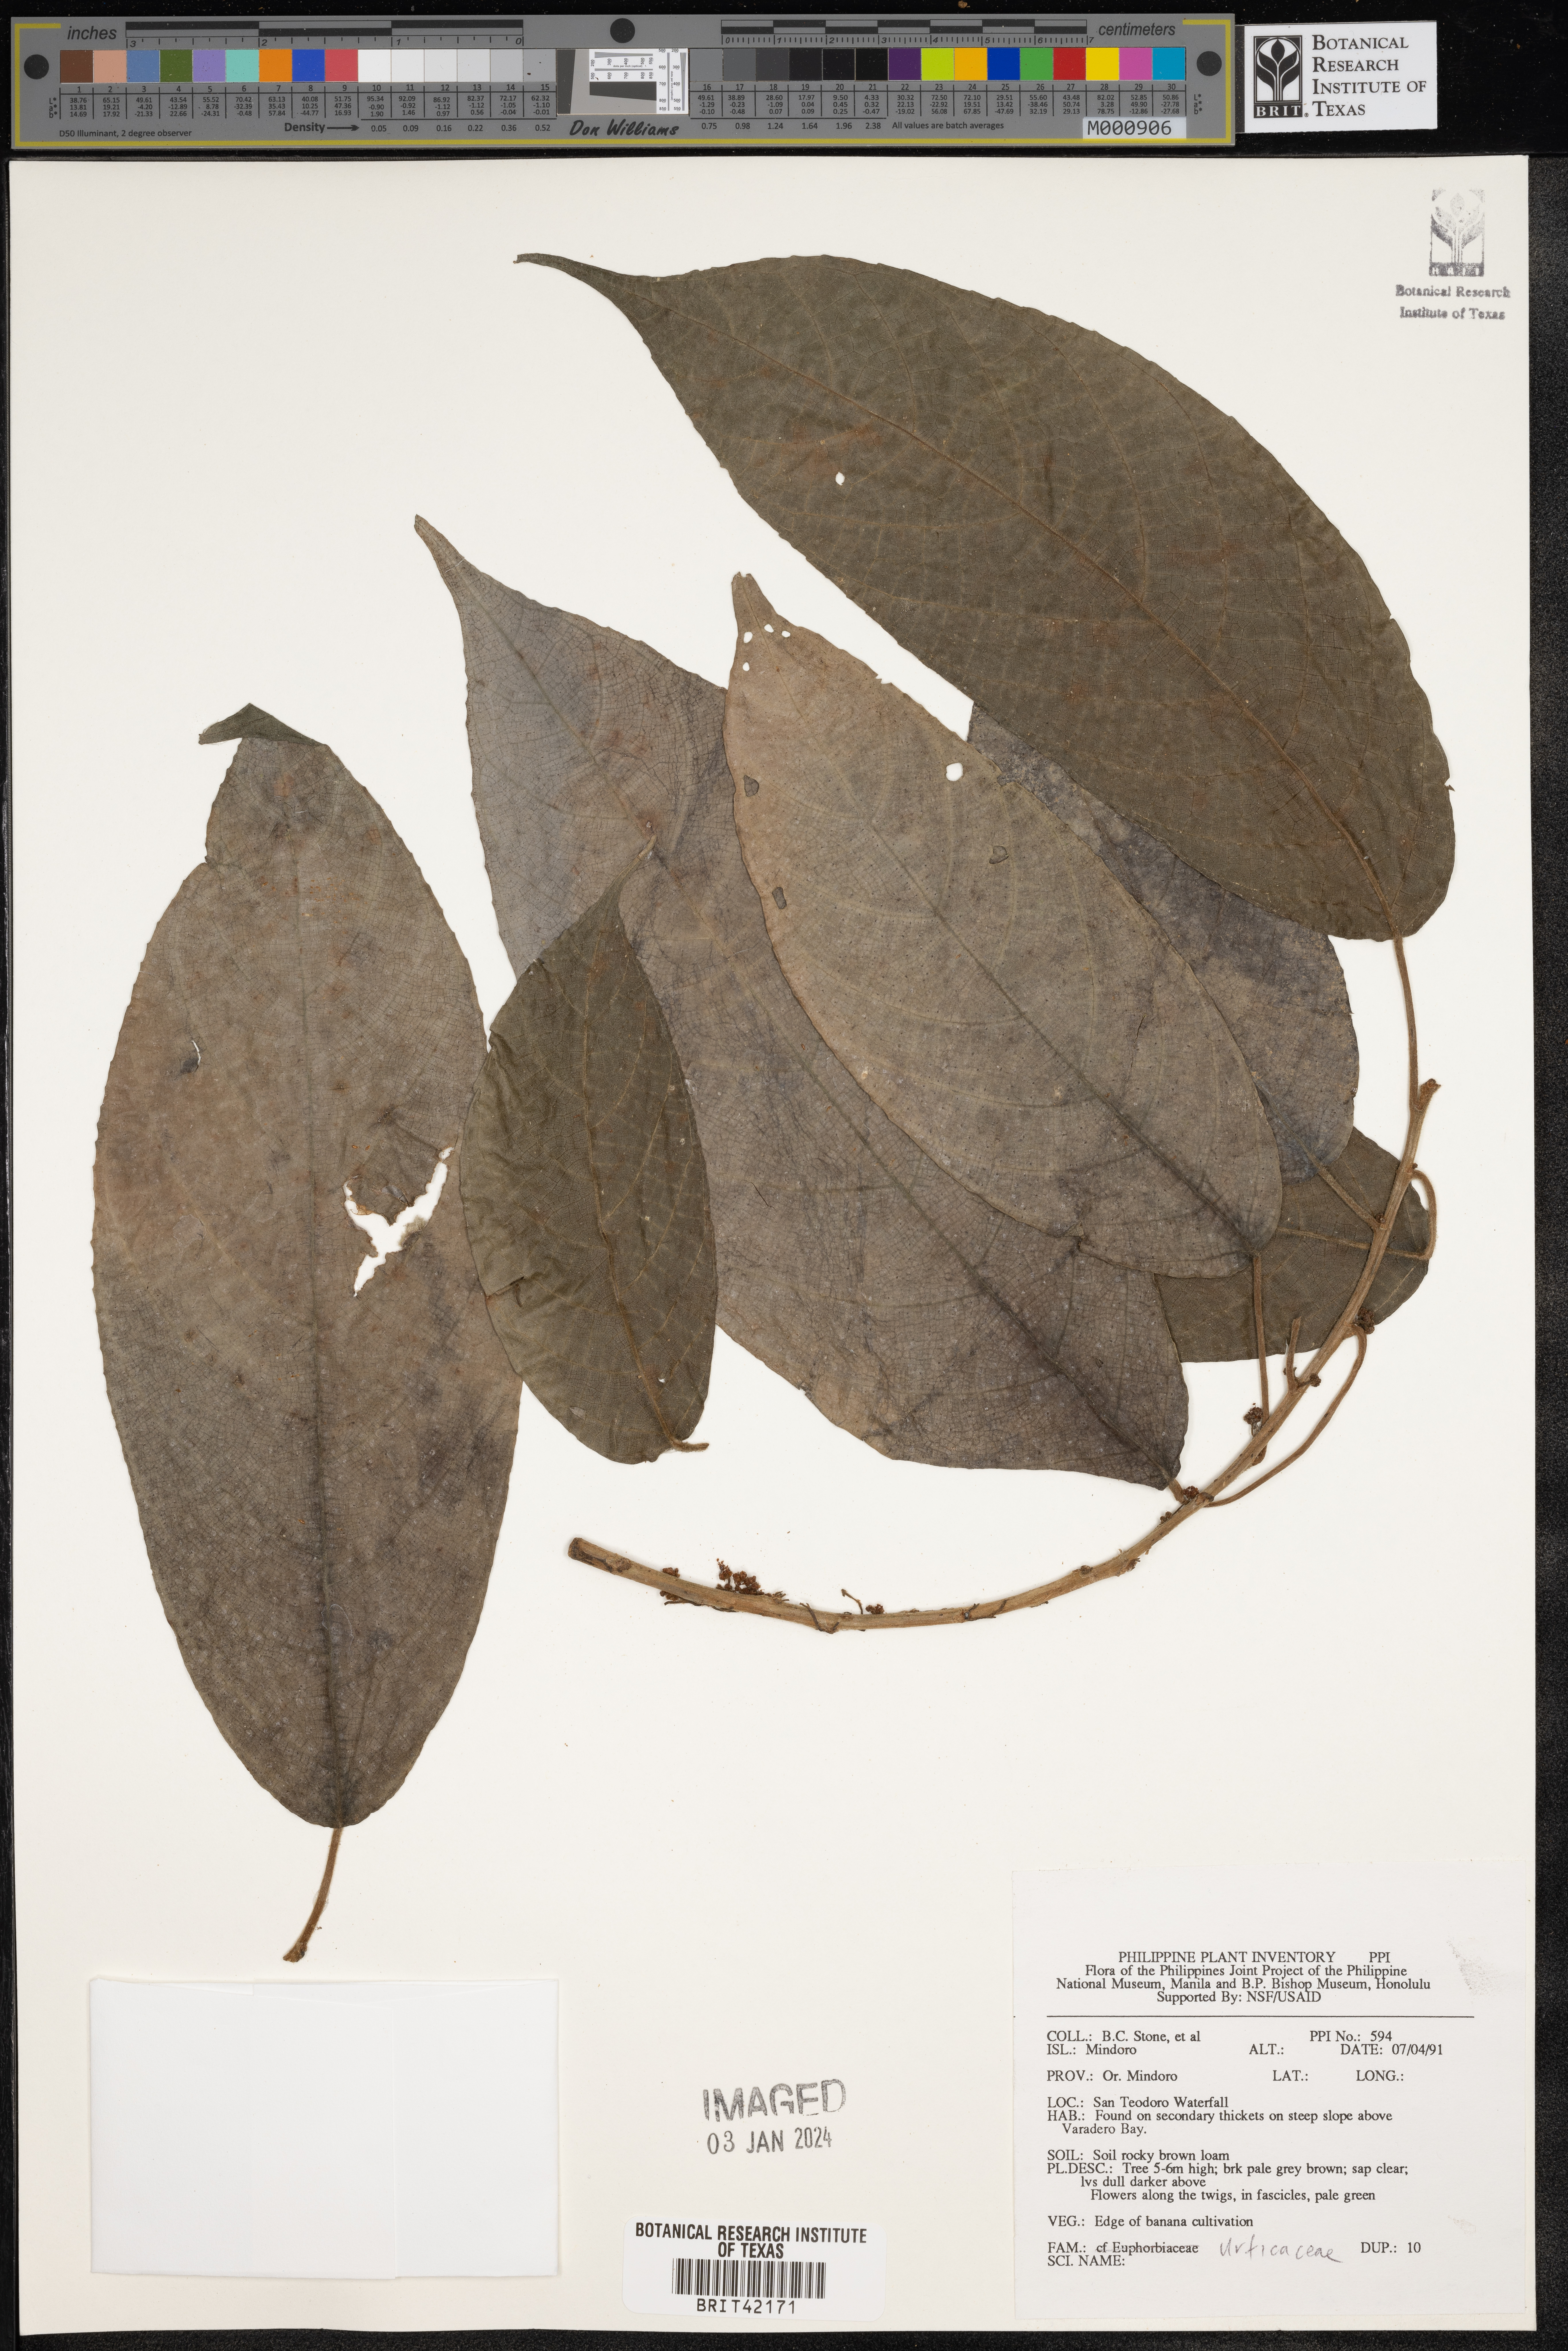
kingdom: Plantae
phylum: Tracheophyta
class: Magnoliopsida
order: Rosales
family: Urticaceae
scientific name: Urticaceae
